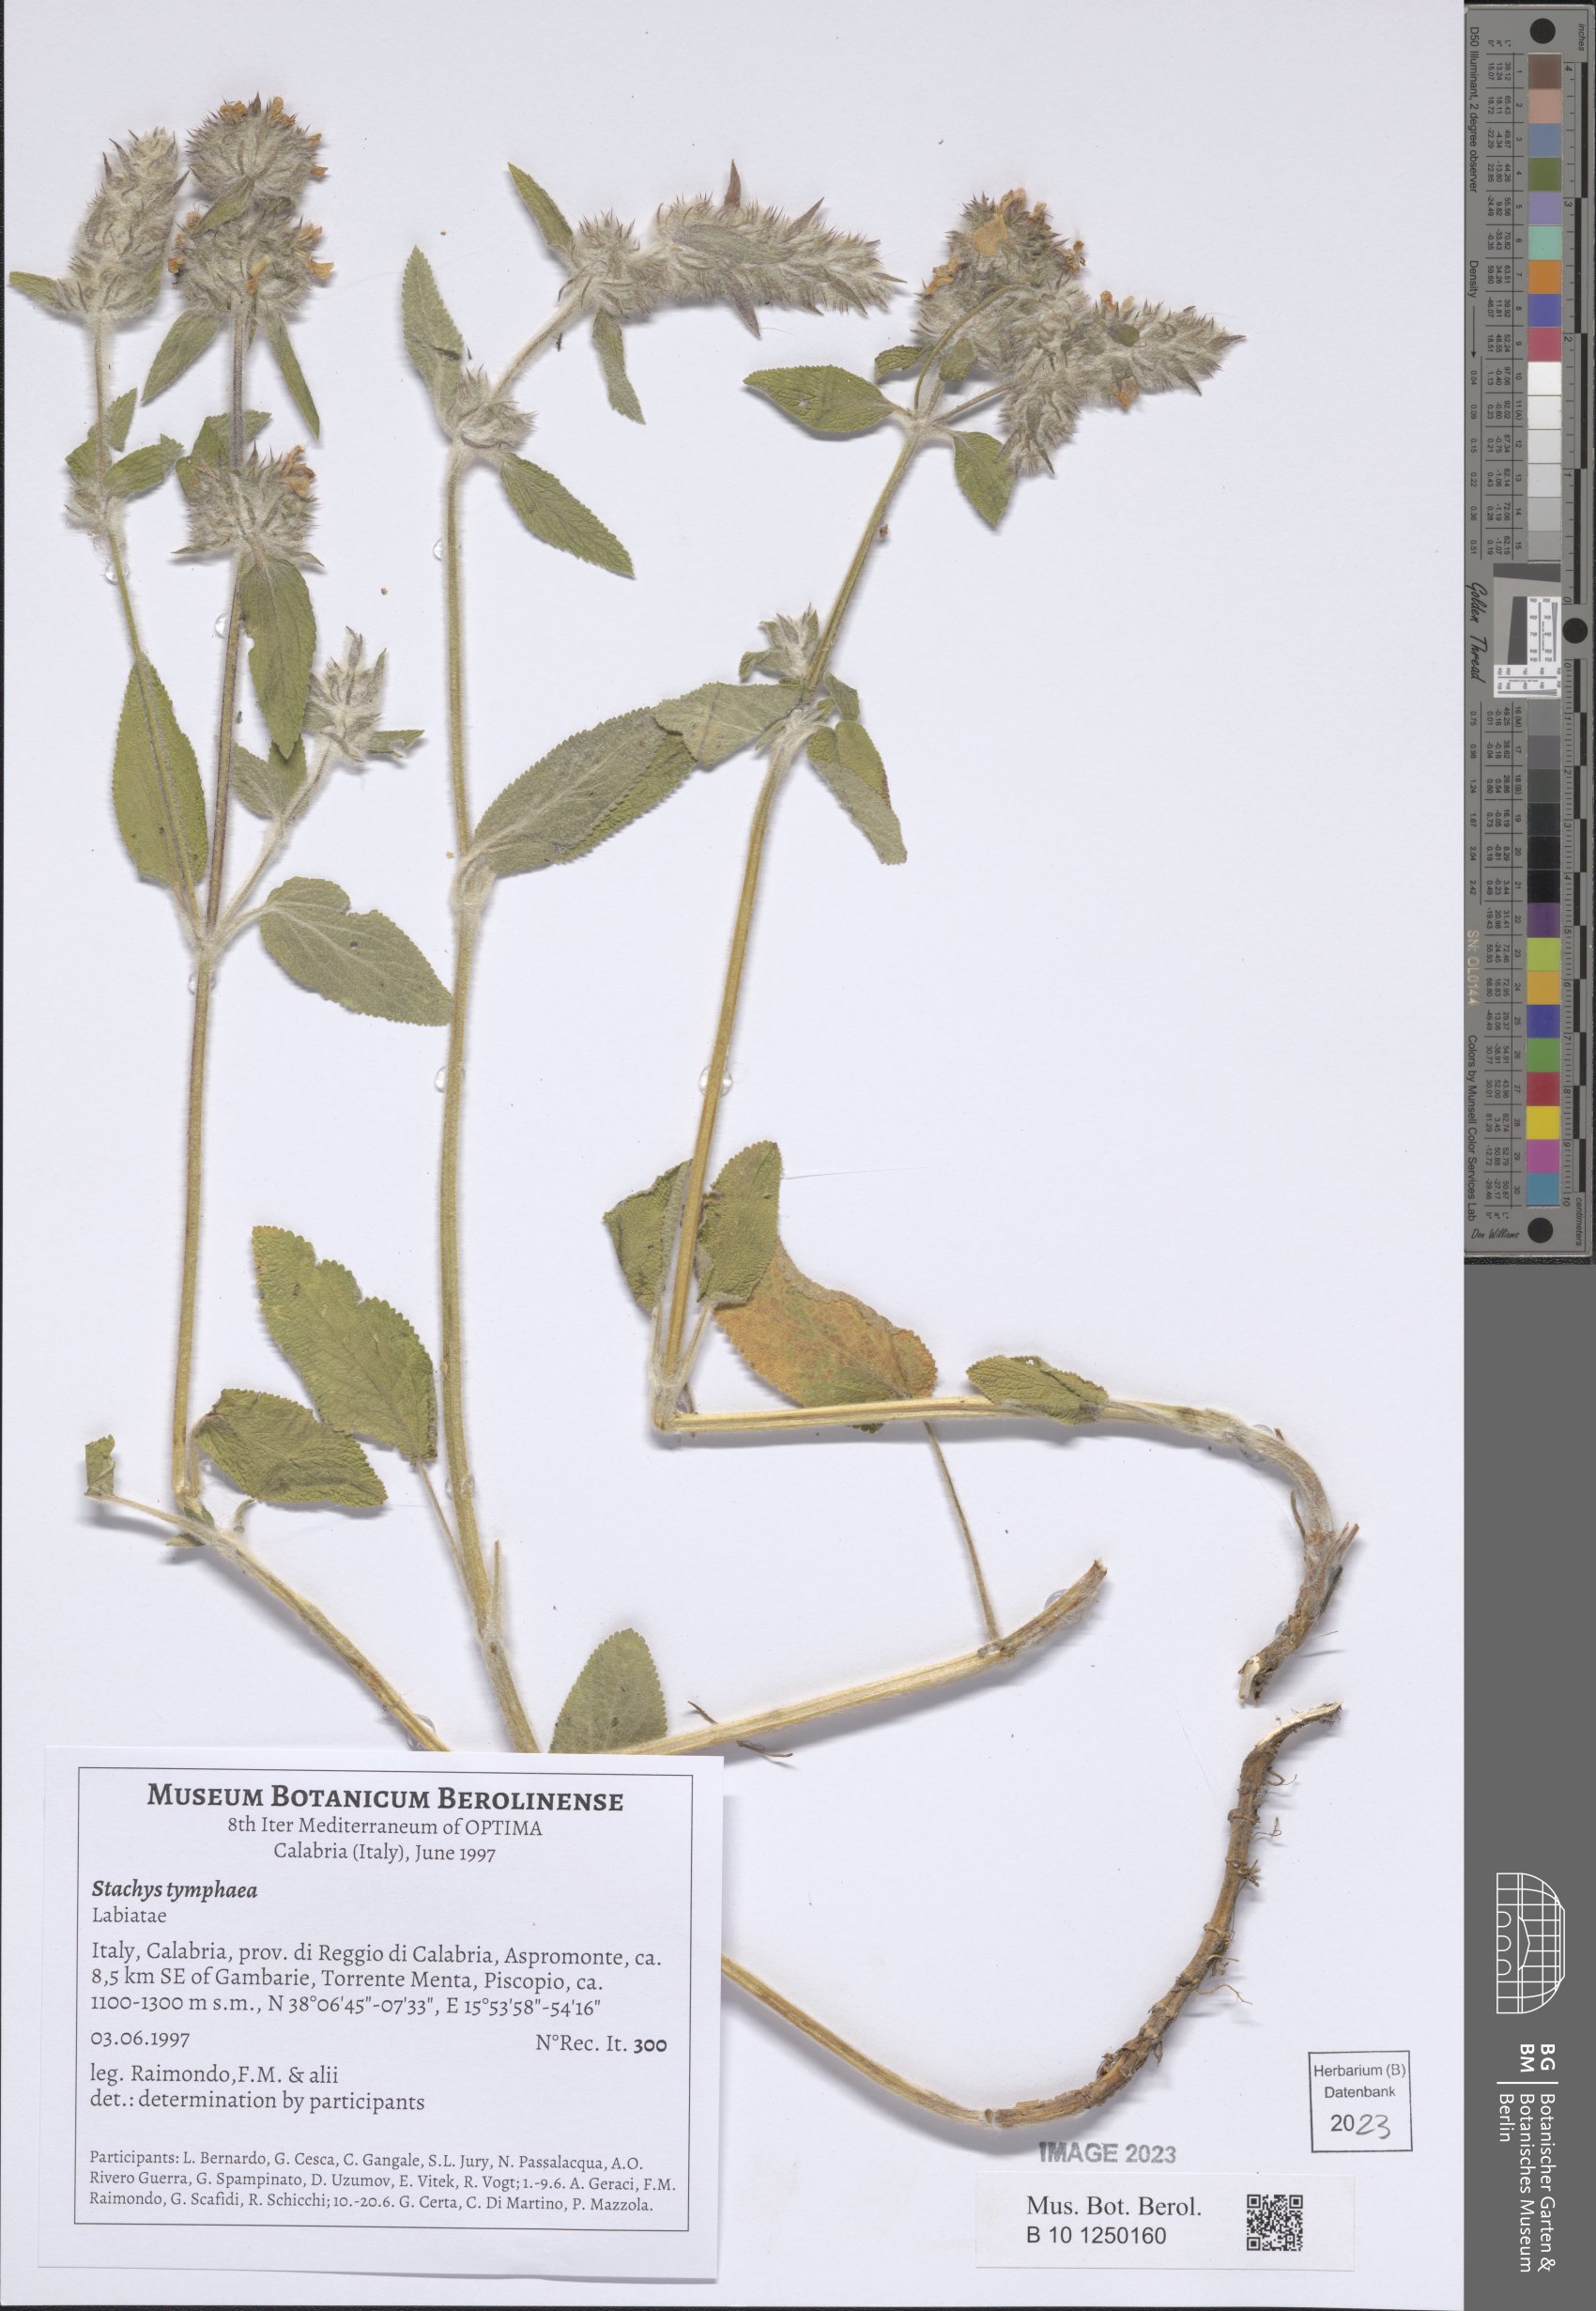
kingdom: Plantae
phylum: Tracheophyta
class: Magnoliopsida
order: Lamiales
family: Lamiaceae
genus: Stachys
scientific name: Stachys tymphaea
